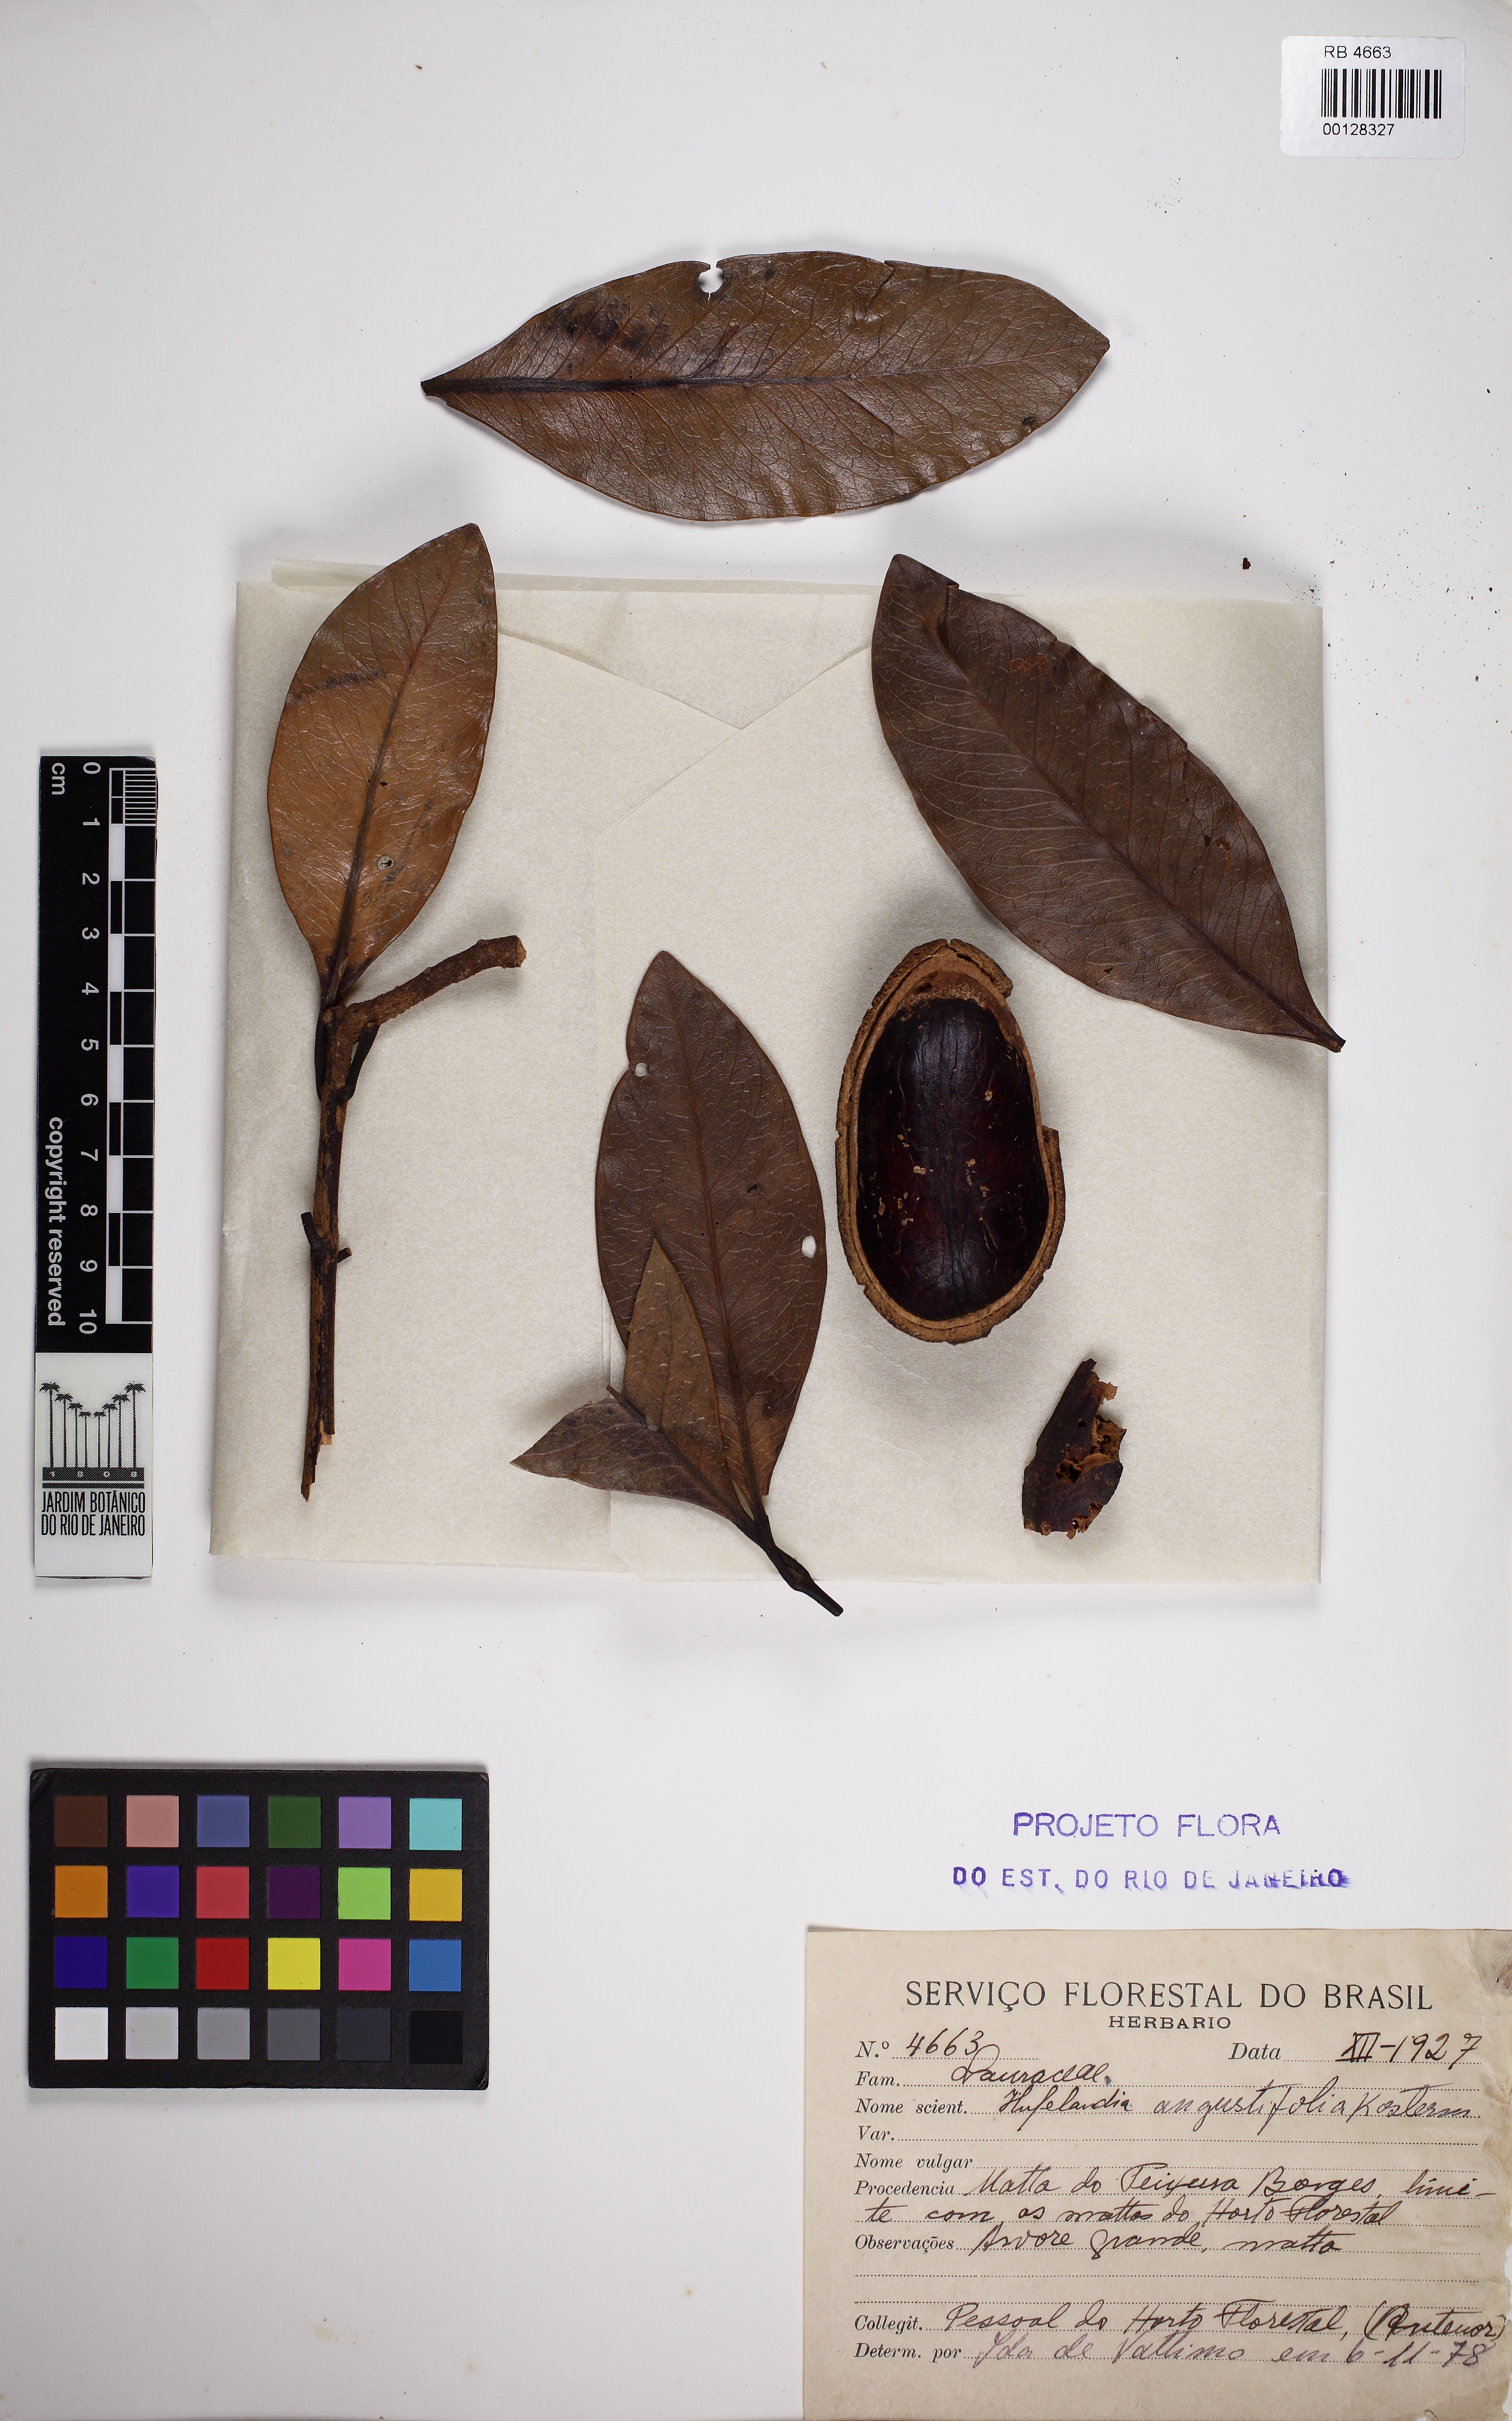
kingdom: Plantae
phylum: Tracheophyta
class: Magnoliopsida
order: Laurales
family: Lauraceae
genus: Beilschmiedia
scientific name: Beilschmiedia angustifolia
